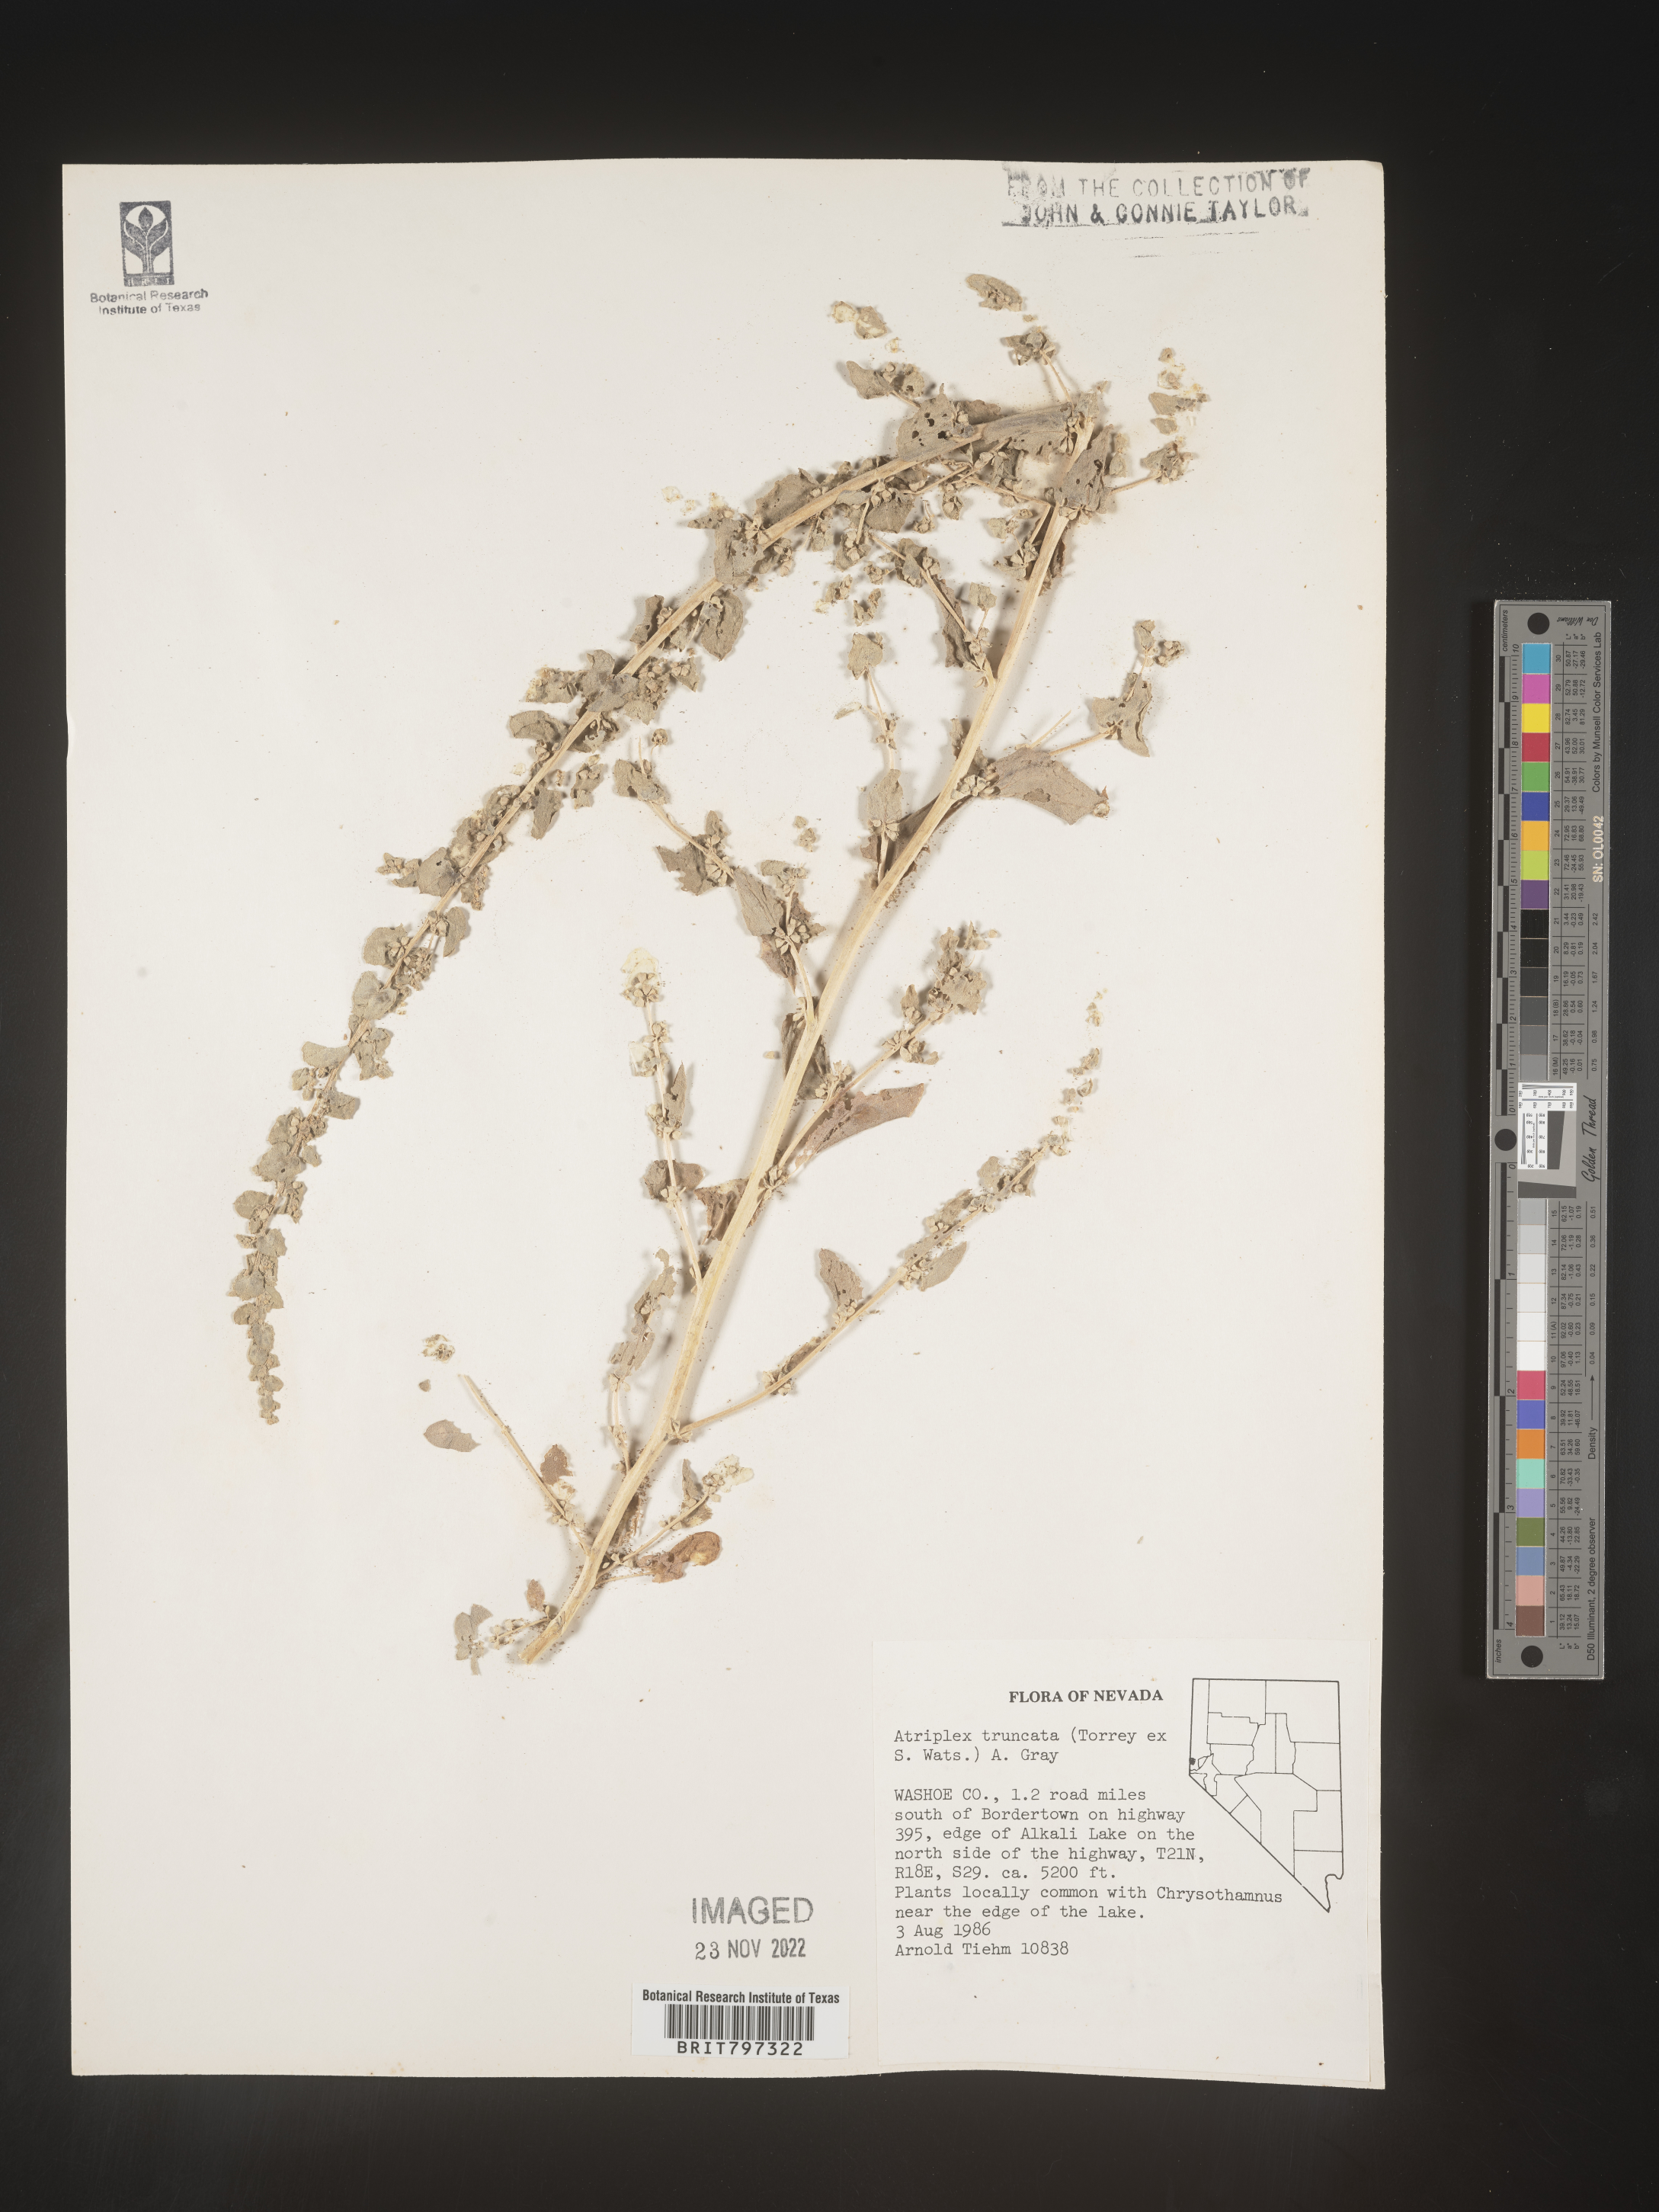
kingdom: Plantae
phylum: Tracheophyta
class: Magnoliopsida
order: Caryophyllales
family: Amaranthaceae
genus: Atriplex
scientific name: Atriplex
